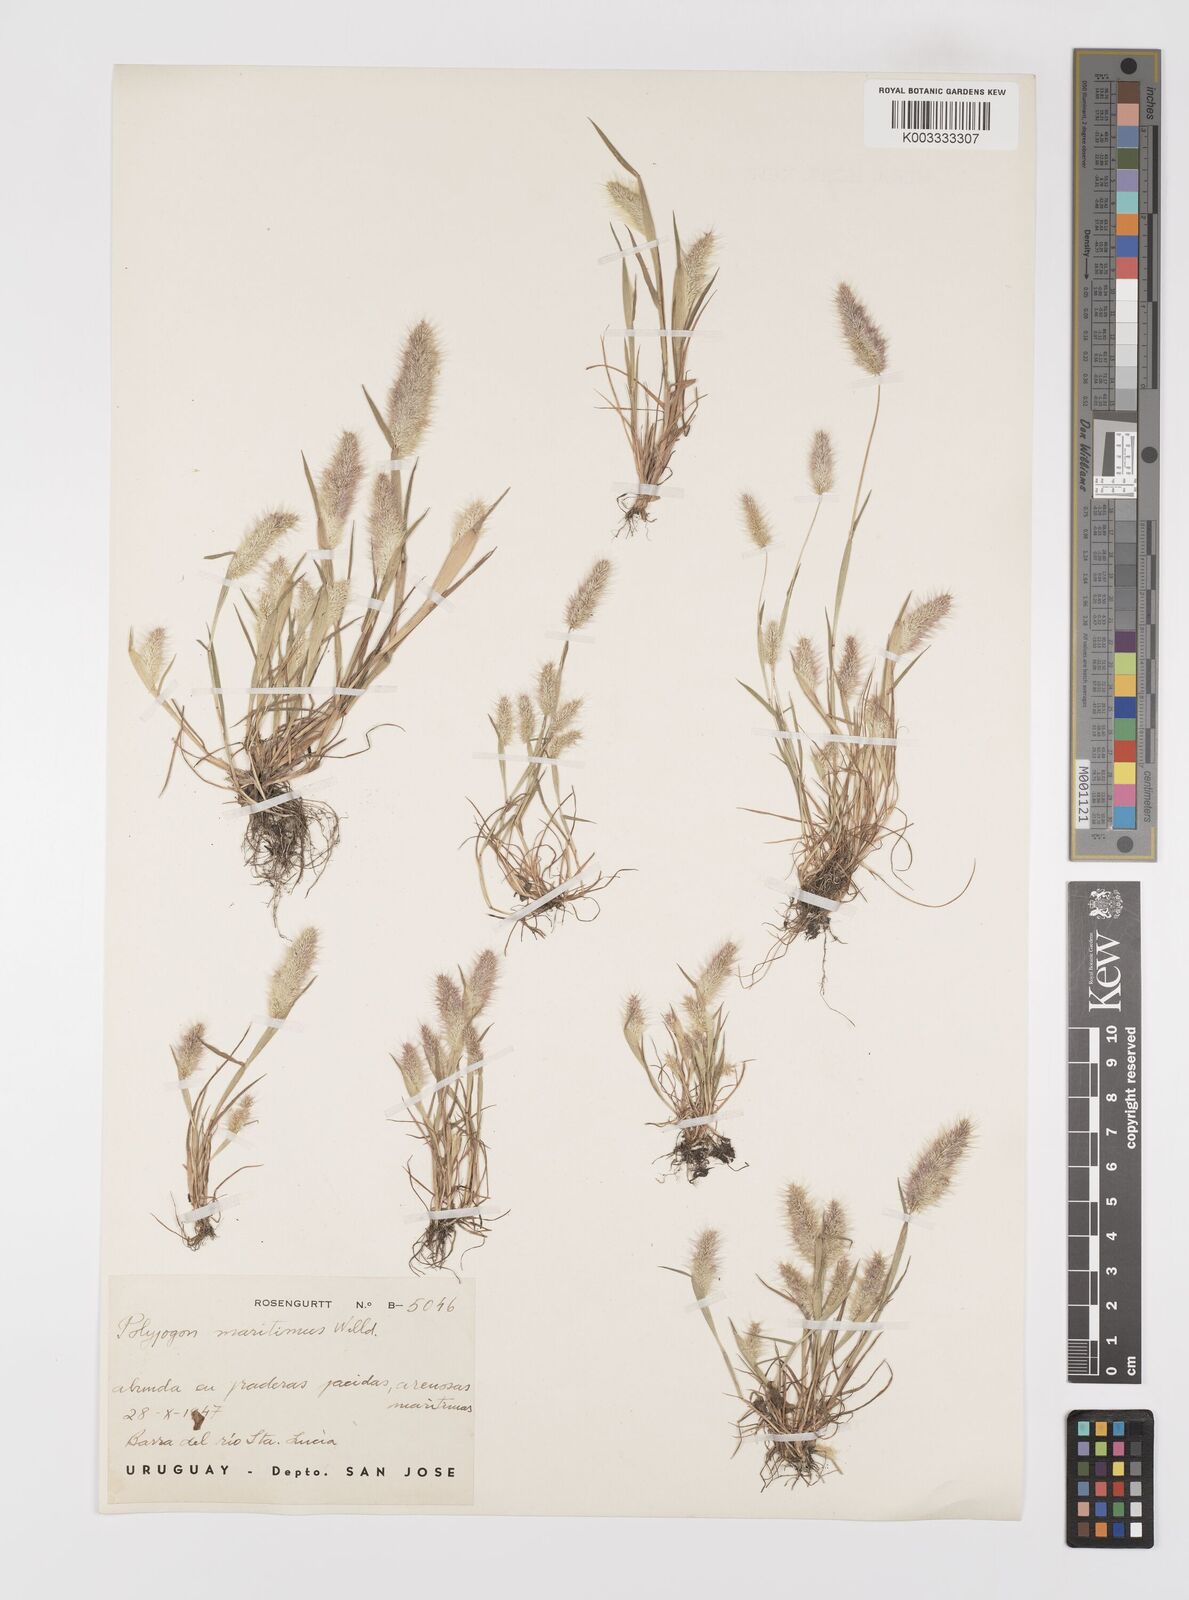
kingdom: Plantae
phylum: Tracheophyta
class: Liliopsida
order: Poales
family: Poaceae
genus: Polypogon
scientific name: Polypogon maritimus
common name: Mediterranean rabbitsfoot grass
